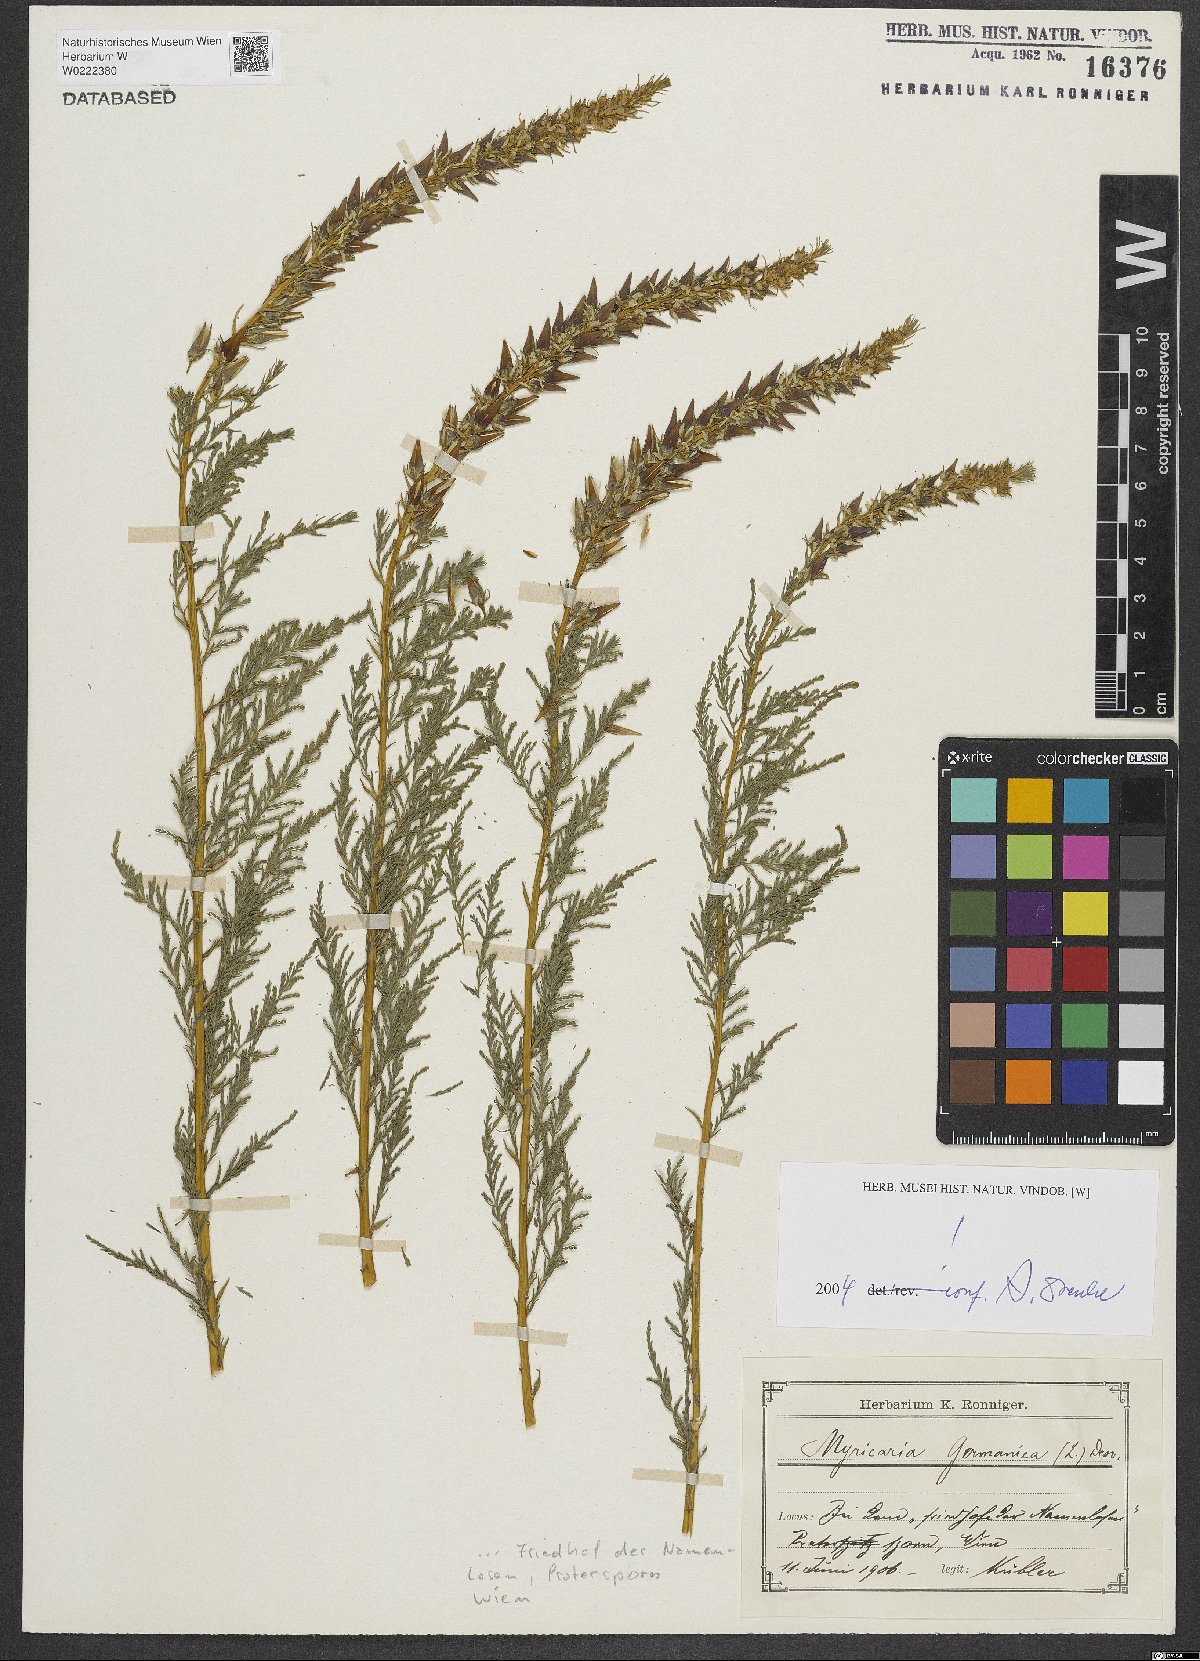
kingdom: Plantae
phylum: Tracheophyta
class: Magnoliopsida
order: Caryophyllales
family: Tamaricaceae
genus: Myricaria
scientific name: Myricaria germanica
